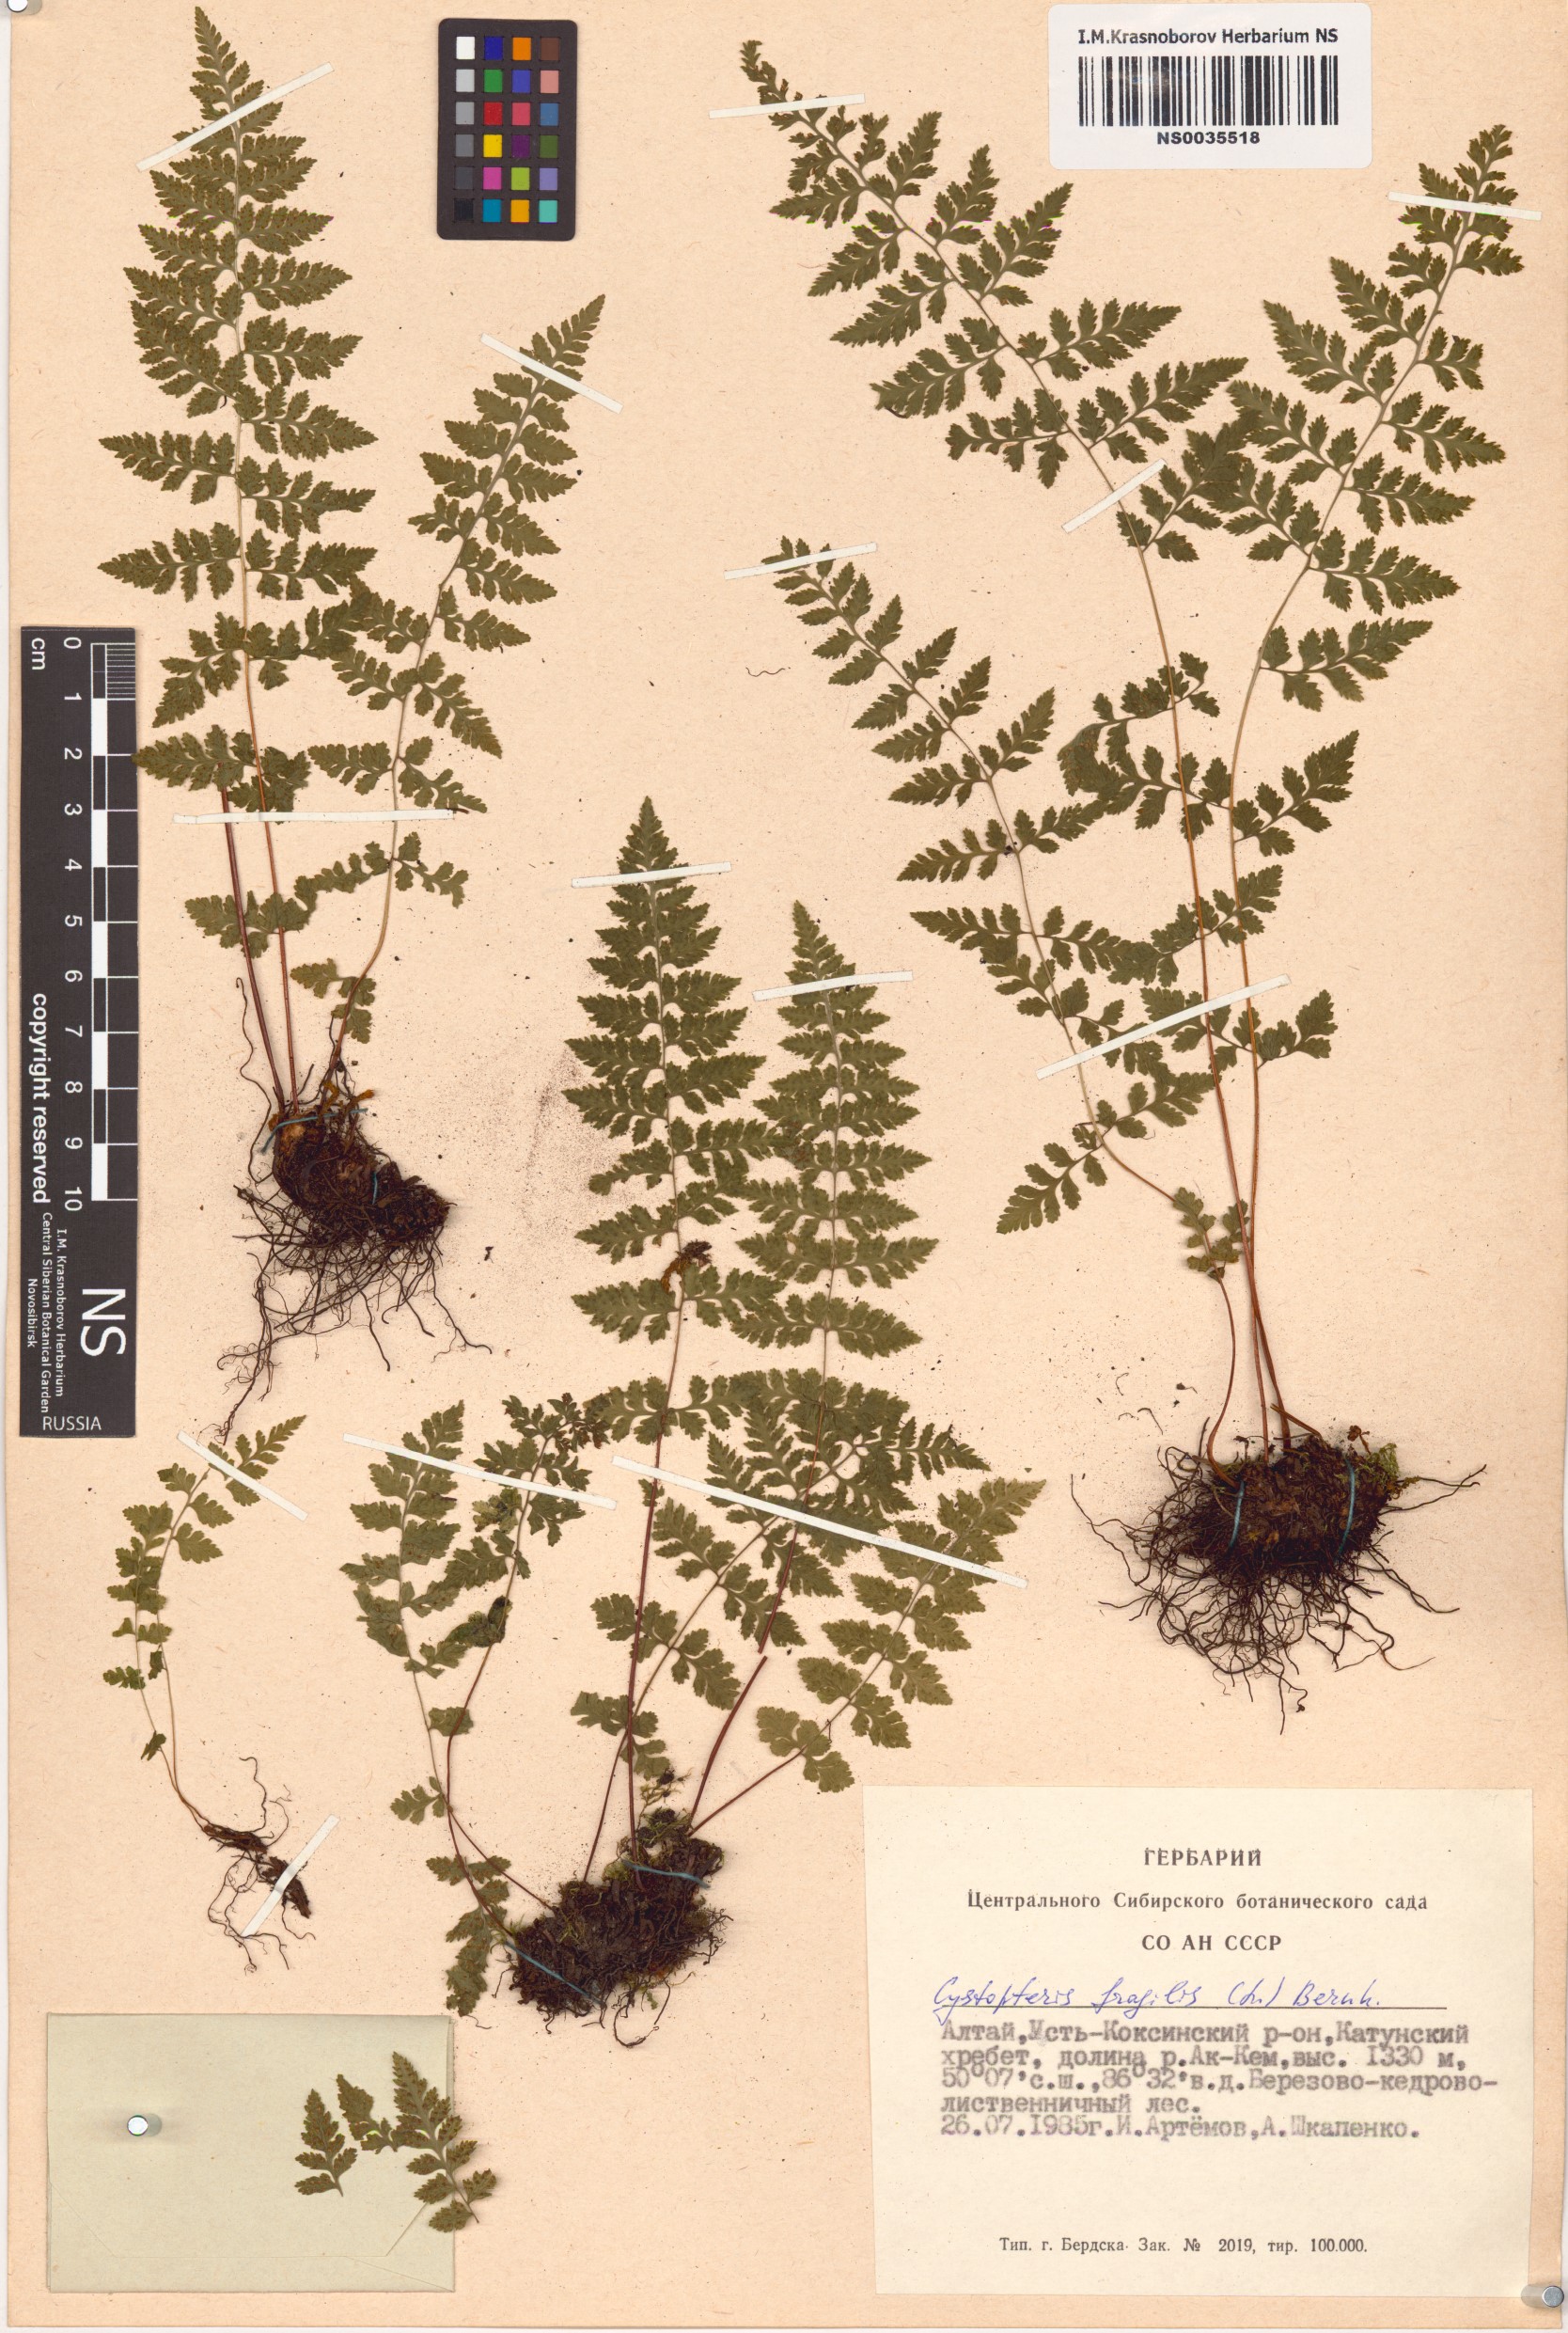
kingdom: Plantae
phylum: Tracheophyta
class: Polypodiopsida
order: Polypodiales
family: Cystopteridaceae
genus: Cystopteris
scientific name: Cystopteris fragilis
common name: Brittle bladder fern
